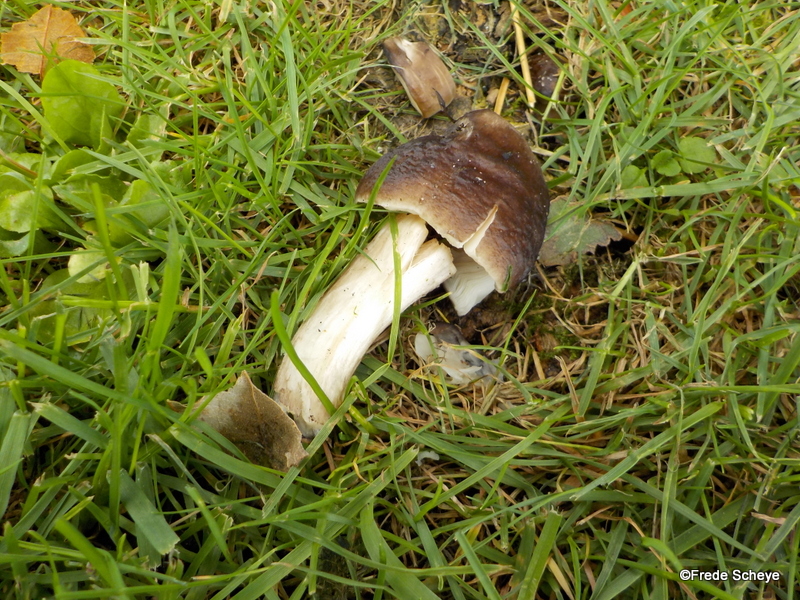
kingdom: Fungi
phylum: Basidiomycota
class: Agaricomycetes
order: Agaricales
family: Pluteaceae
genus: Pluteus
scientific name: Pluteus cervinus
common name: sodfarvet skærmhat
